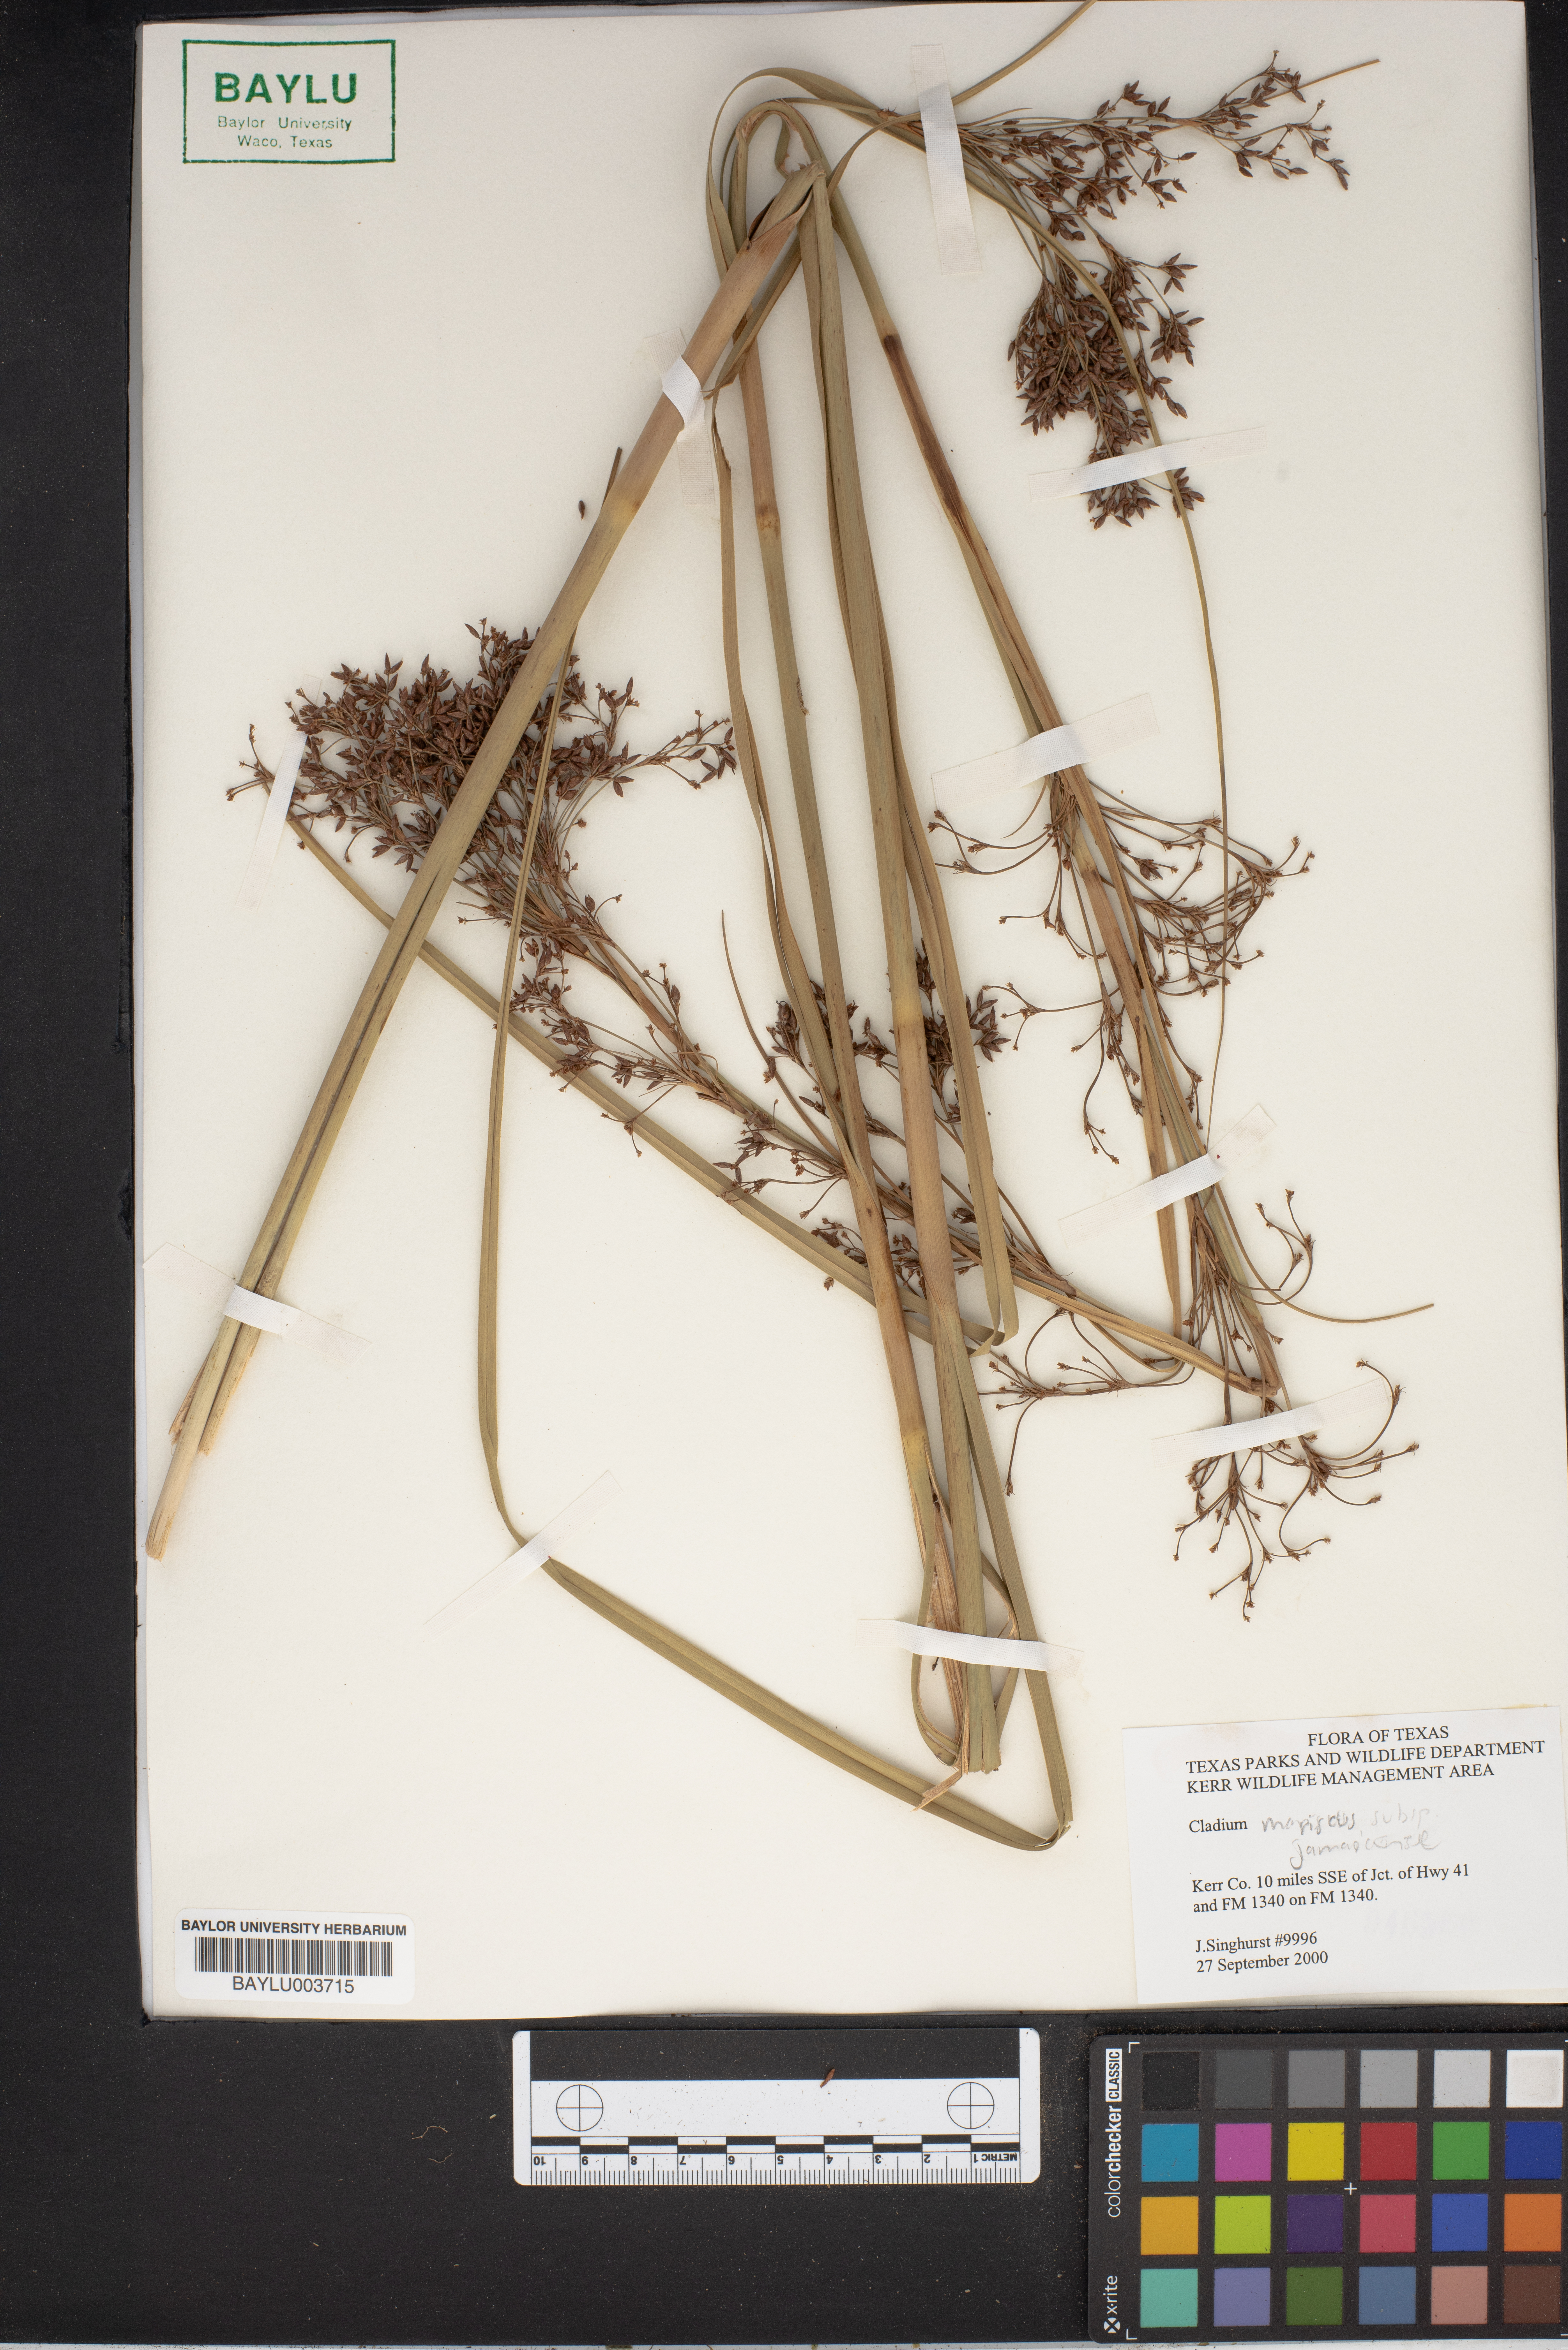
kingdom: Plantae
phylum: Tracheophyta
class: Liliopsida
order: Poales
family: Cyperaceae
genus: Cladium
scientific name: Cladium mariscus
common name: Great fen-sedge
